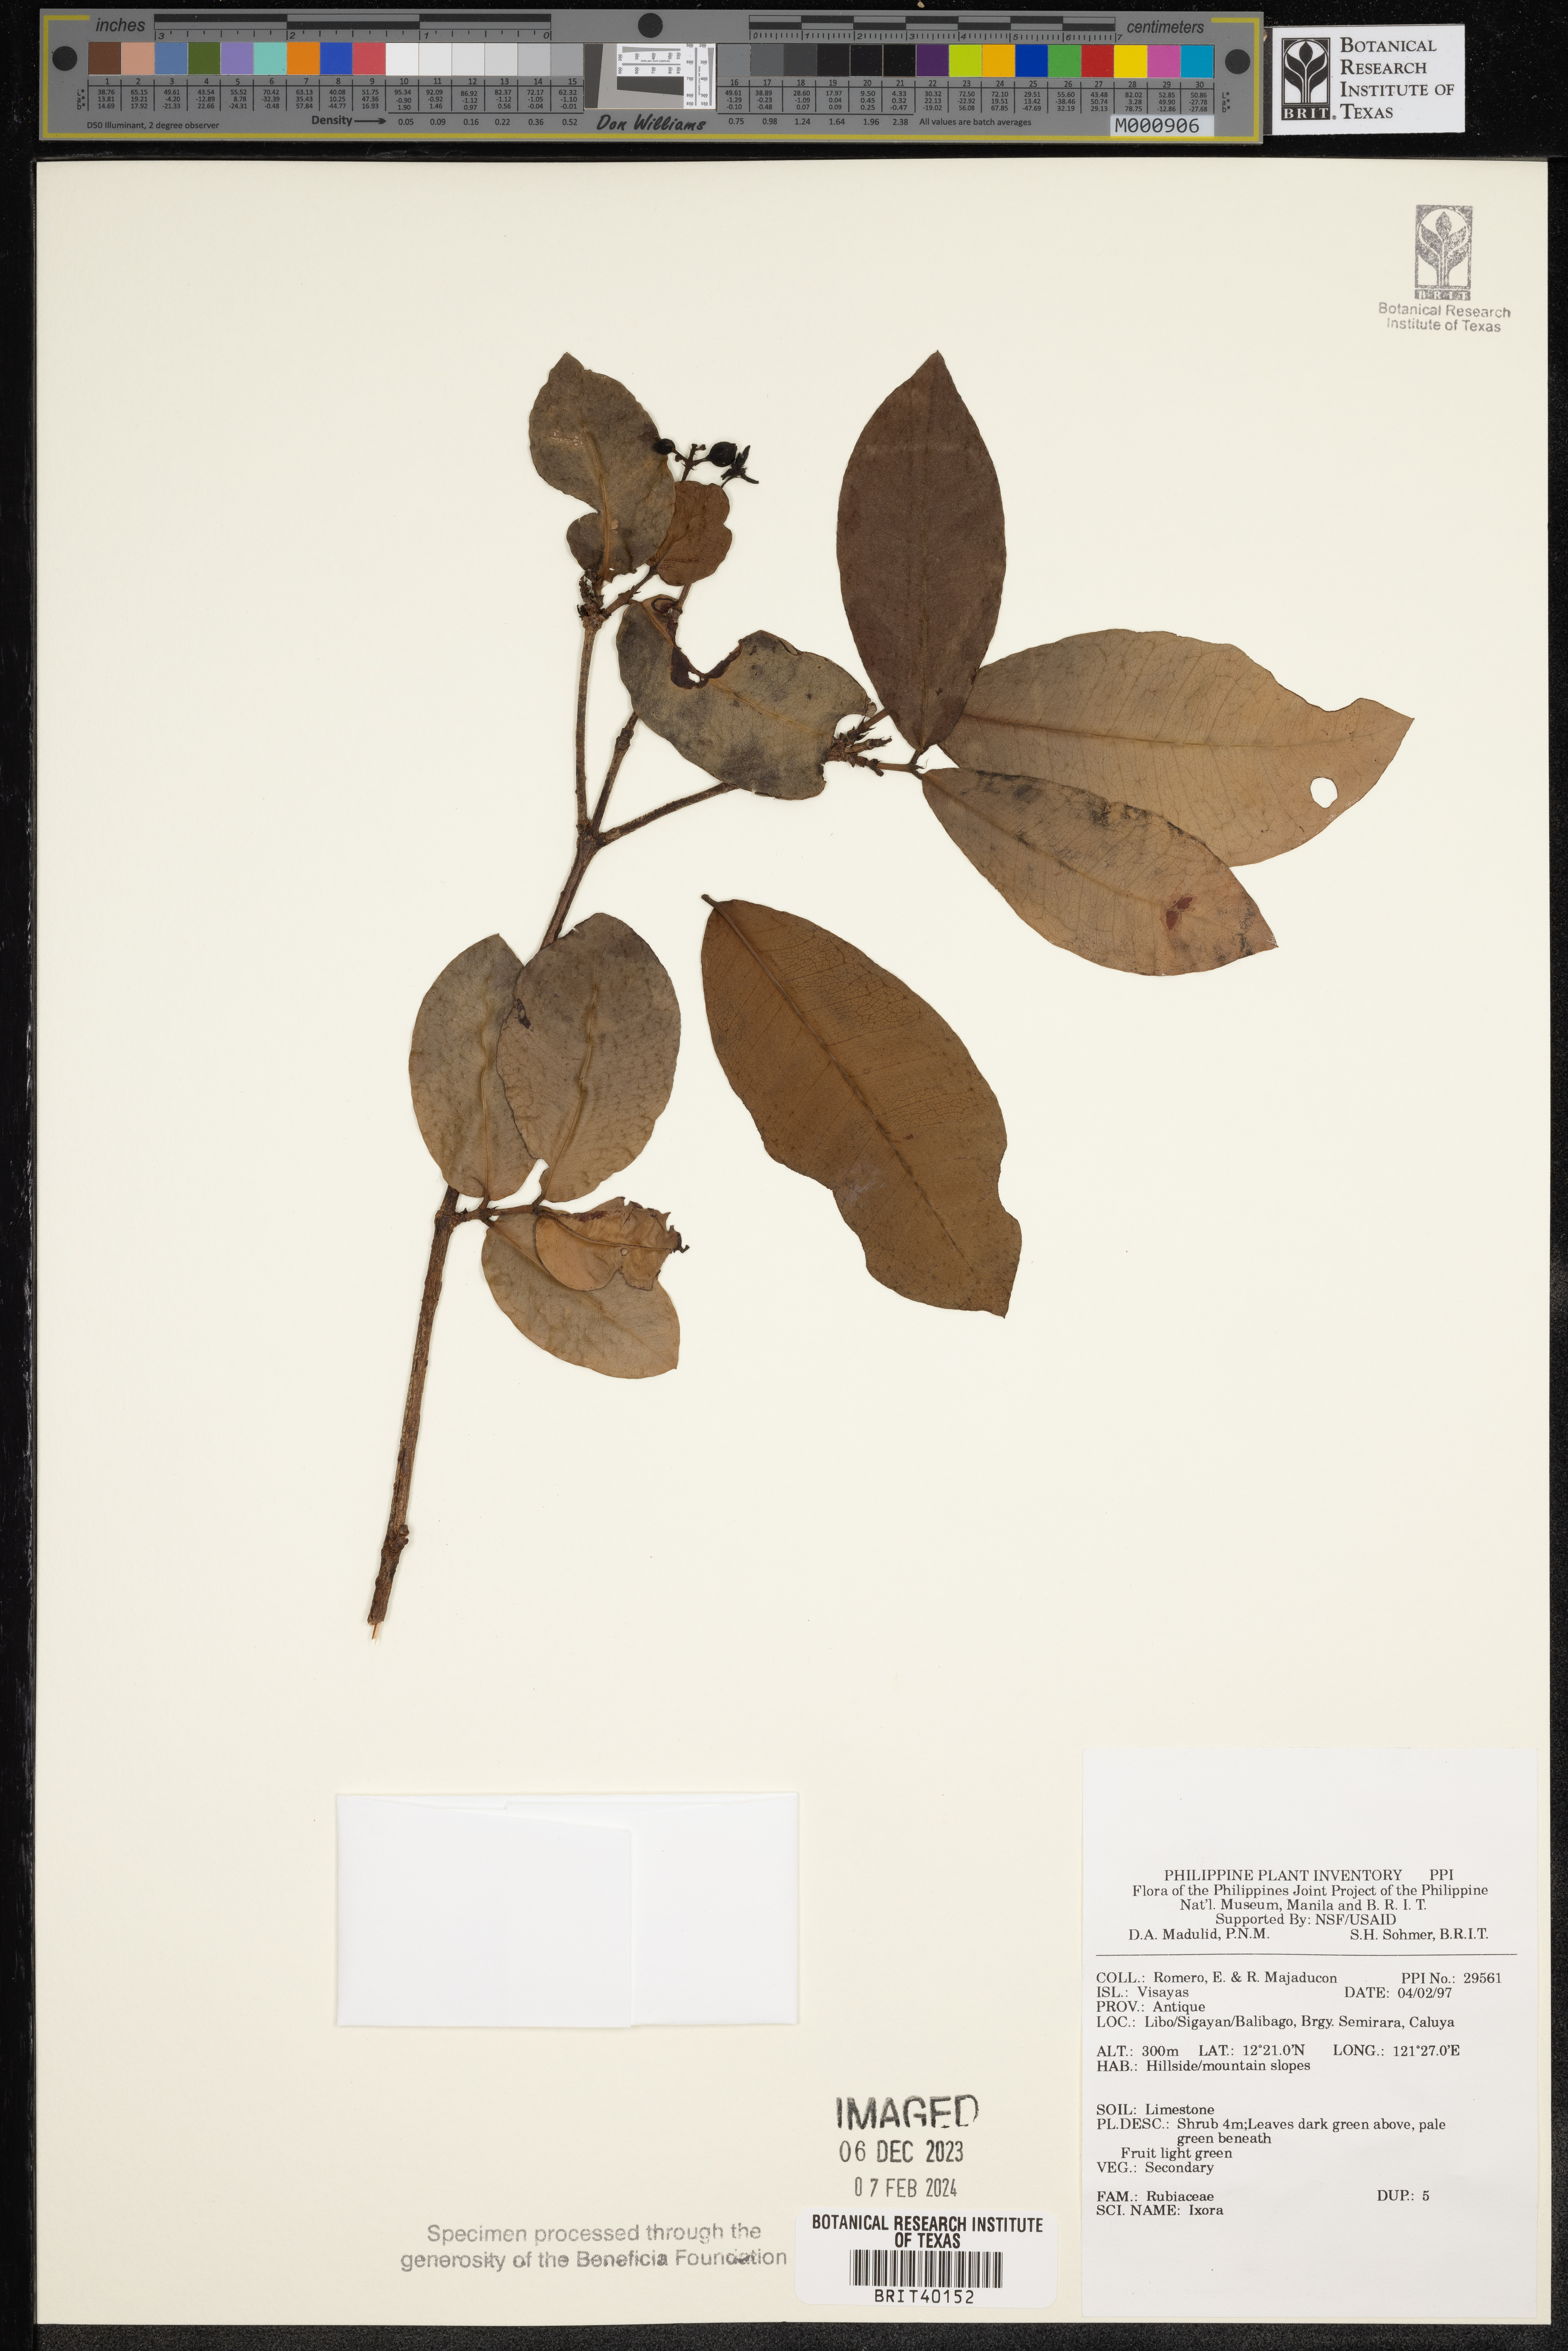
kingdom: Plantae
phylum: Tracheophyta
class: Magnoliopsida
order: Gentianales
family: Rubiaceae
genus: Ixora
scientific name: Ixora
